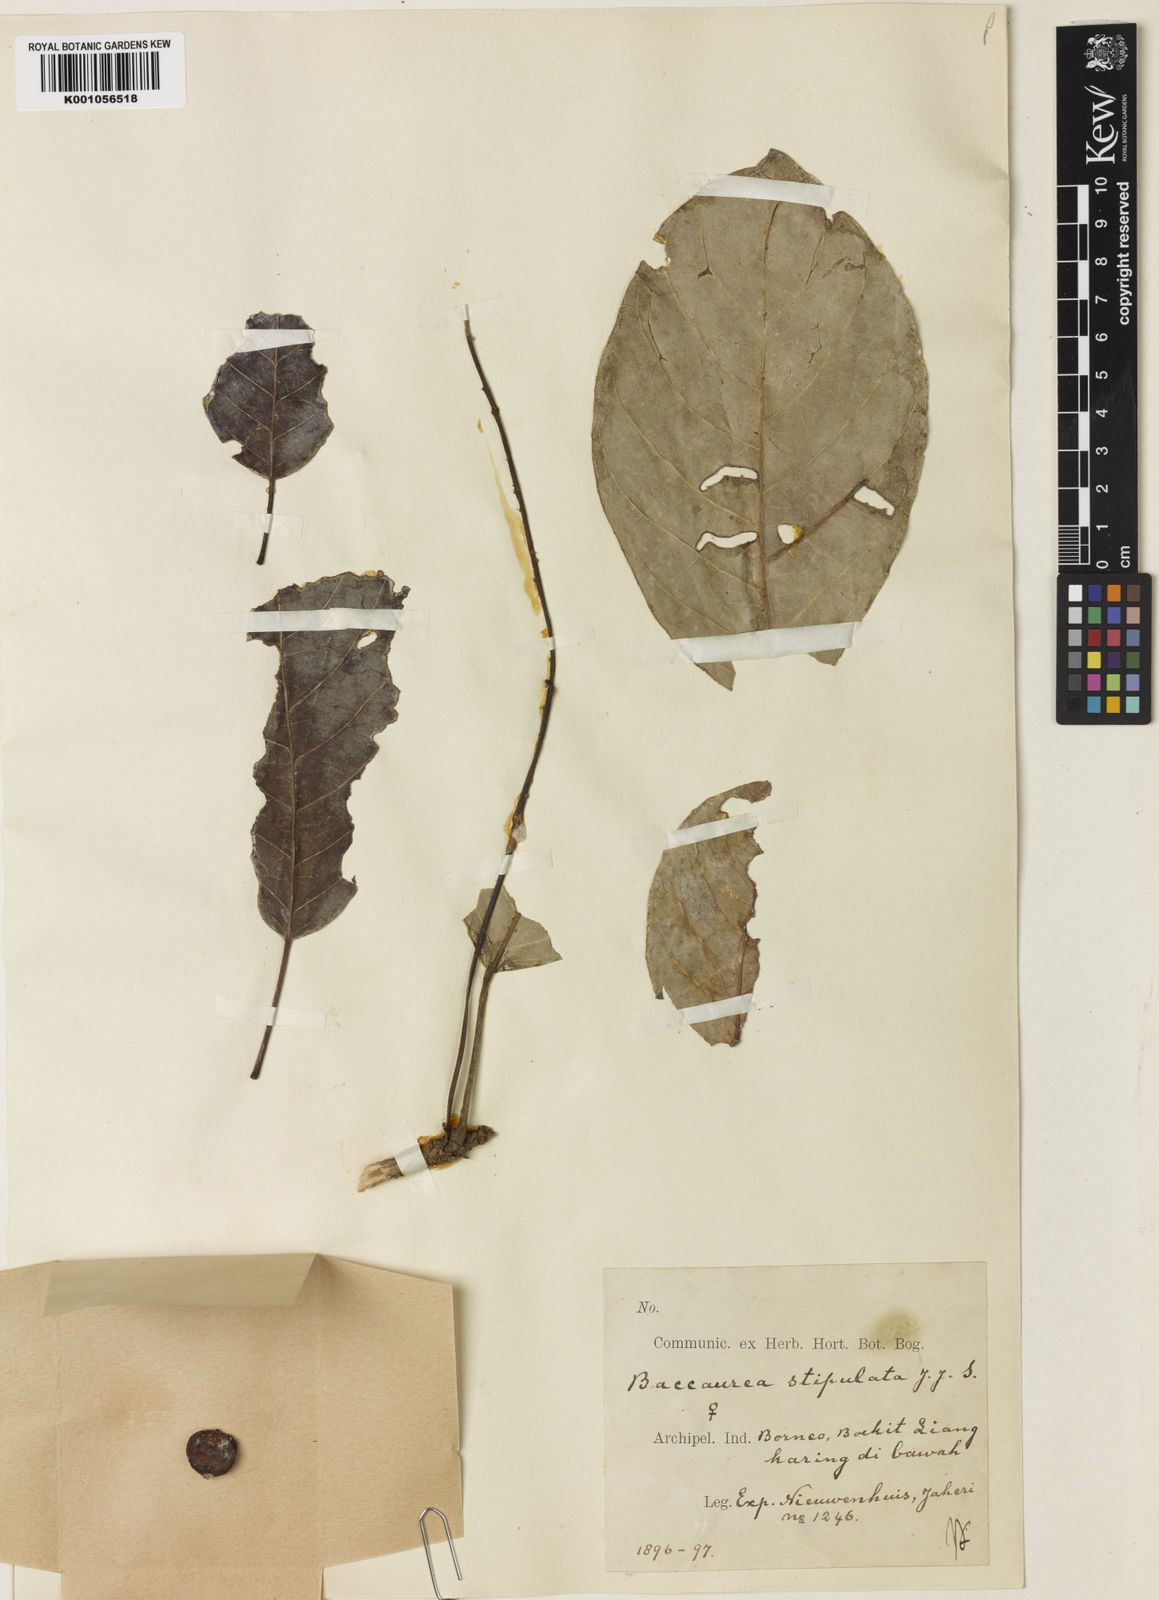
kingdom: Plantae
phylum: Tracheophyta
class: Magnoliopsida
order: Malpighiales
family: Phyllanthaceae
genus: Baccaurea
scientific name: Baccaurea tetrandra
